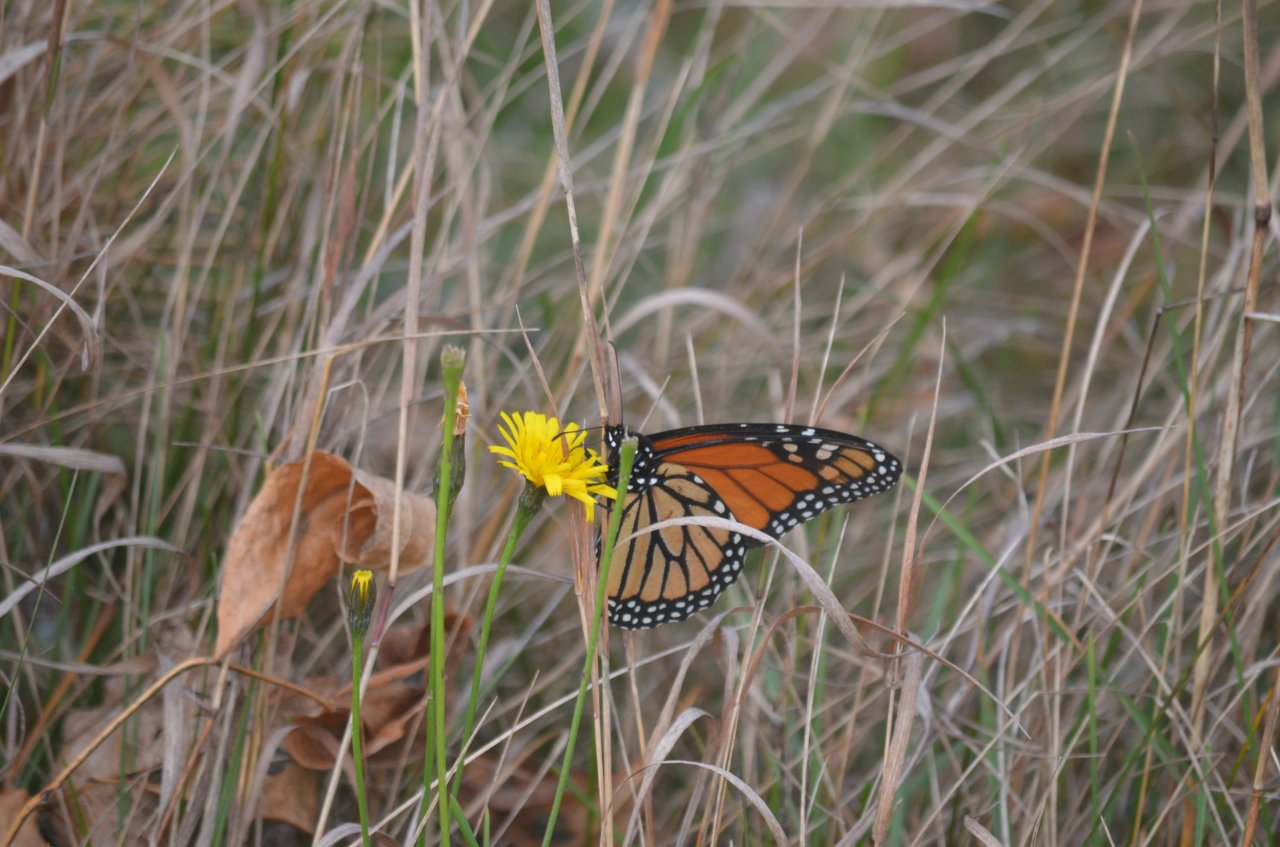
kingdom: Animalia
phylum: Arthropoda
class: Insecta
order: Lepidoptera
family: Nymphalidae
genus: Danaus
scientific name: Danaus plexippus
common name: Monarch
